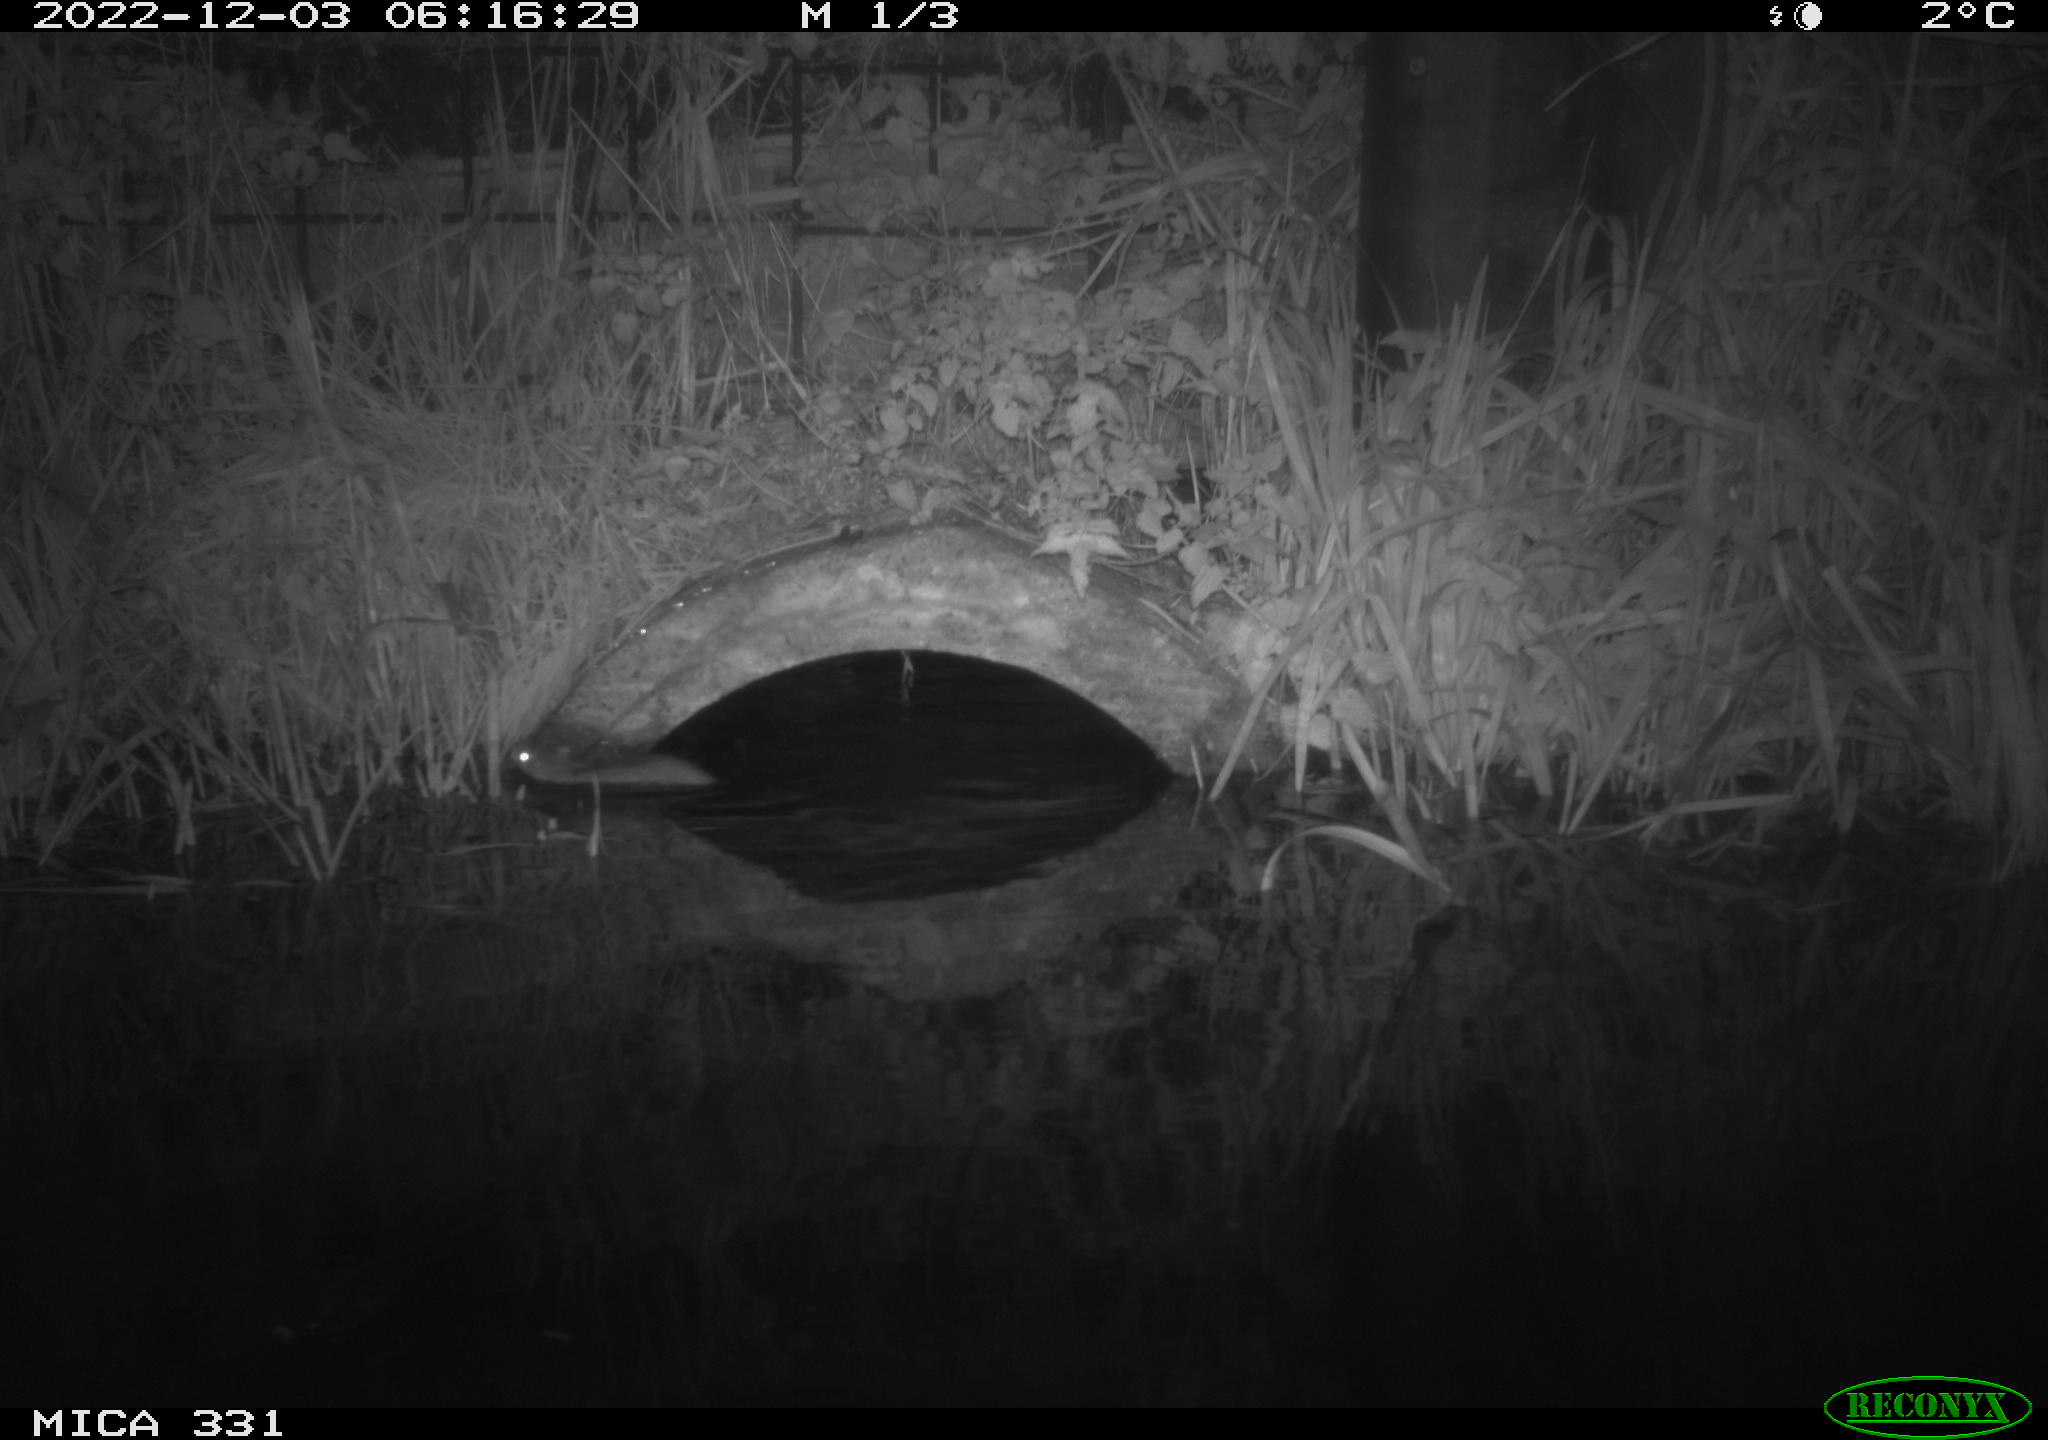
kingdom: Animalia
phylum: Chordata
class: Mammalia
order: Rodentia
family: Muridae
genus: Rattus
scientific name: Rattus norvegicus
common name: Brown rat
